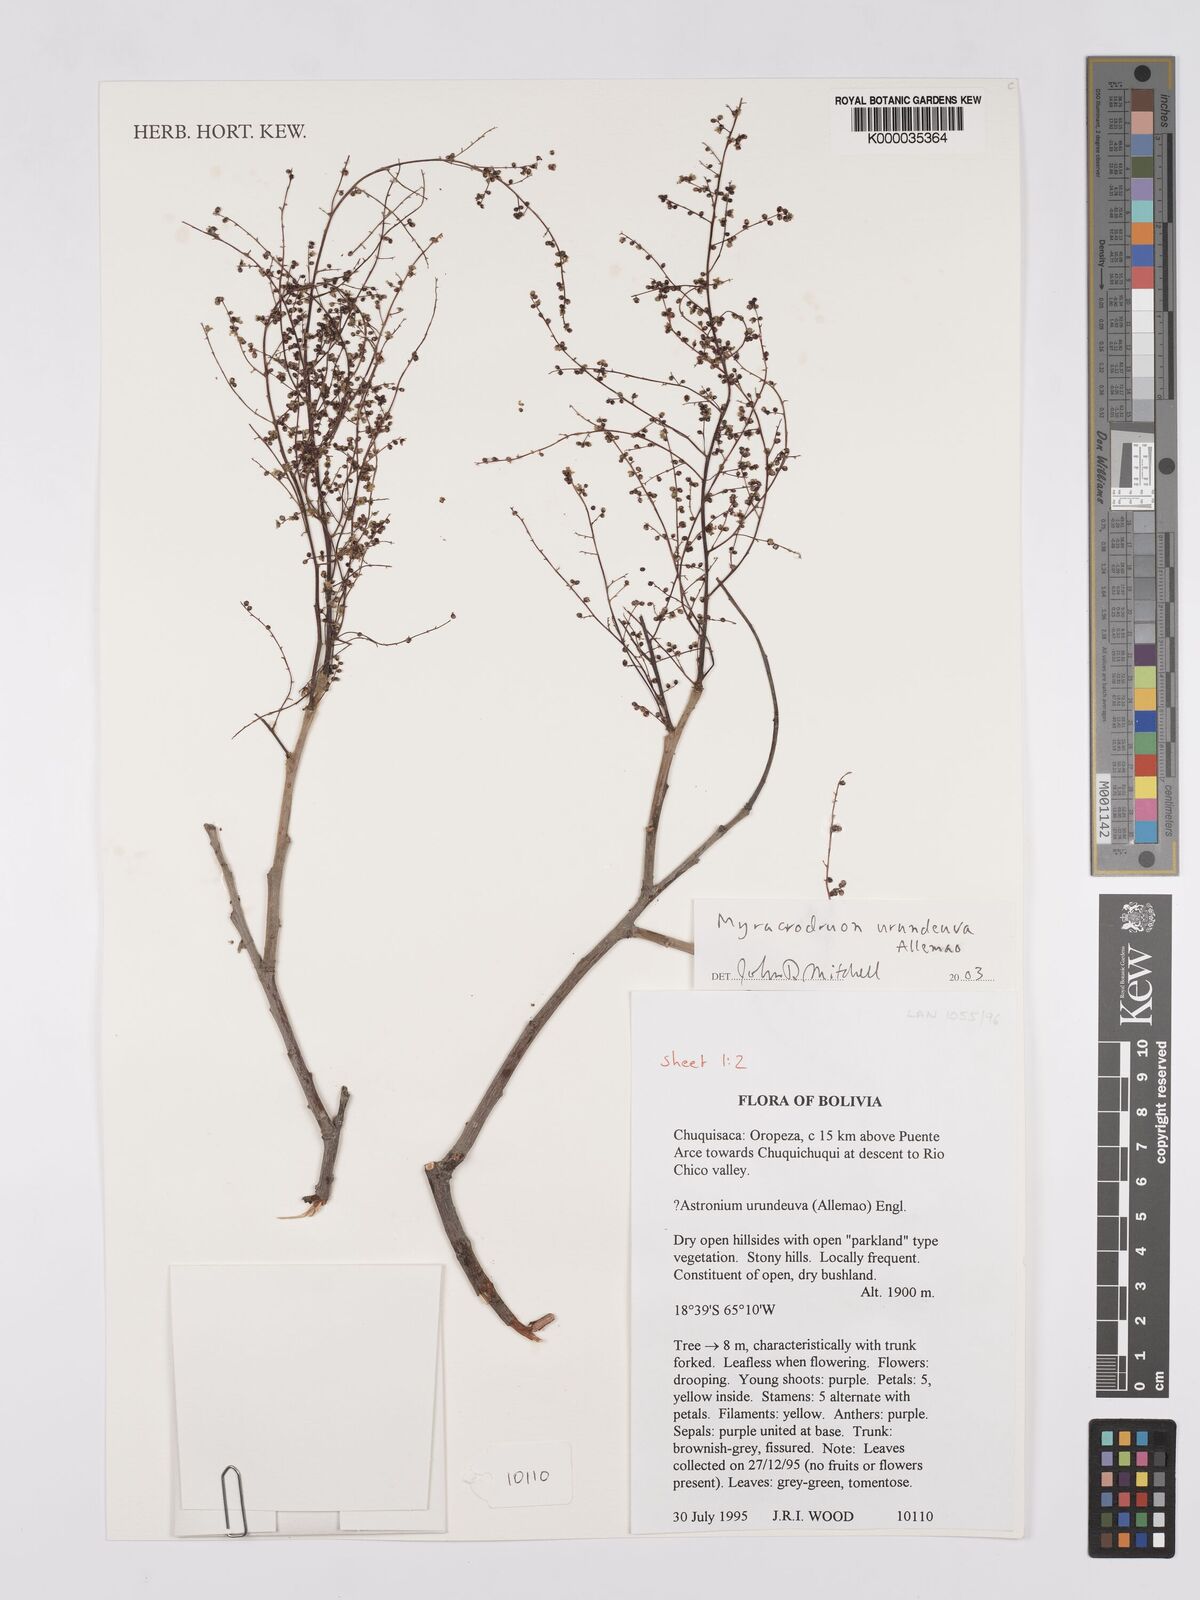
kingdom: Plantae
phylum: Tracheophyta
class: Magnoliopsida
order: Sapindales
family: Anacardiaceae
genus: Myracrodruon
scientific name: Myracrodruon urundeuva
